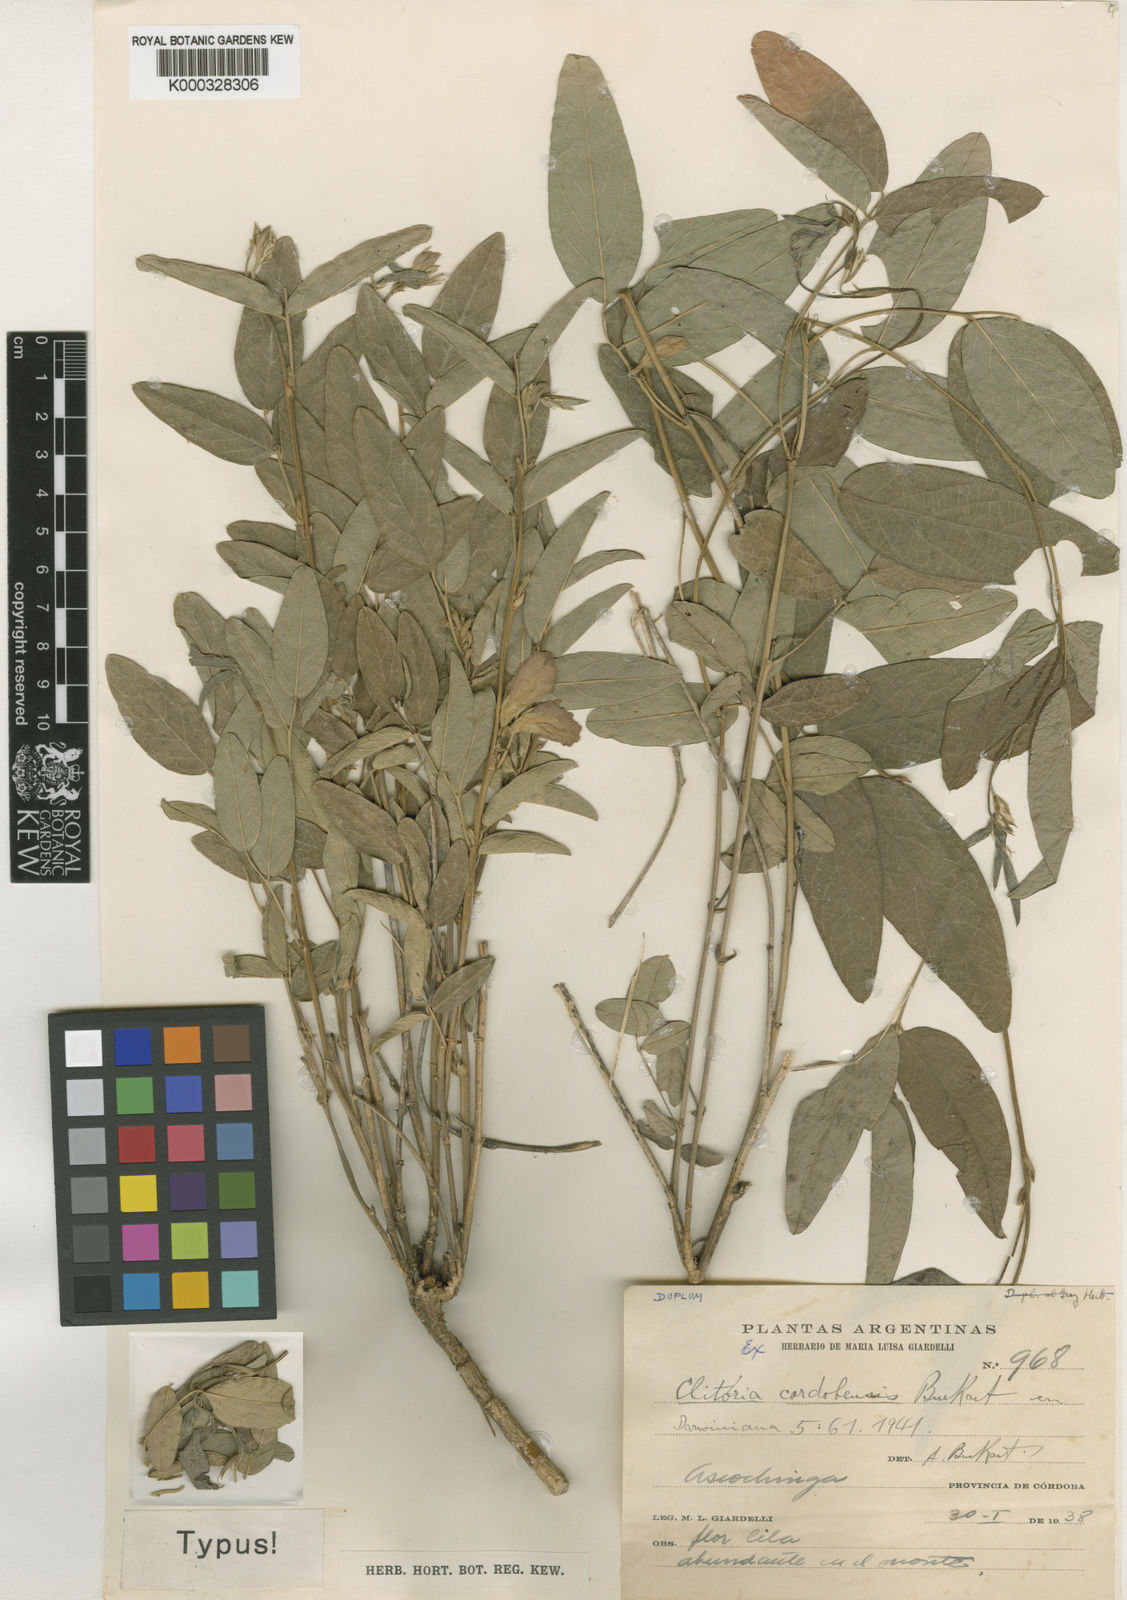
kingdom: Plantae
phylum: Tracheophyta
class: Magnoliopsida
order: Fabales
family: Fabaceae
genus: Clitoria
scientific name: Clitoria cordobensis
